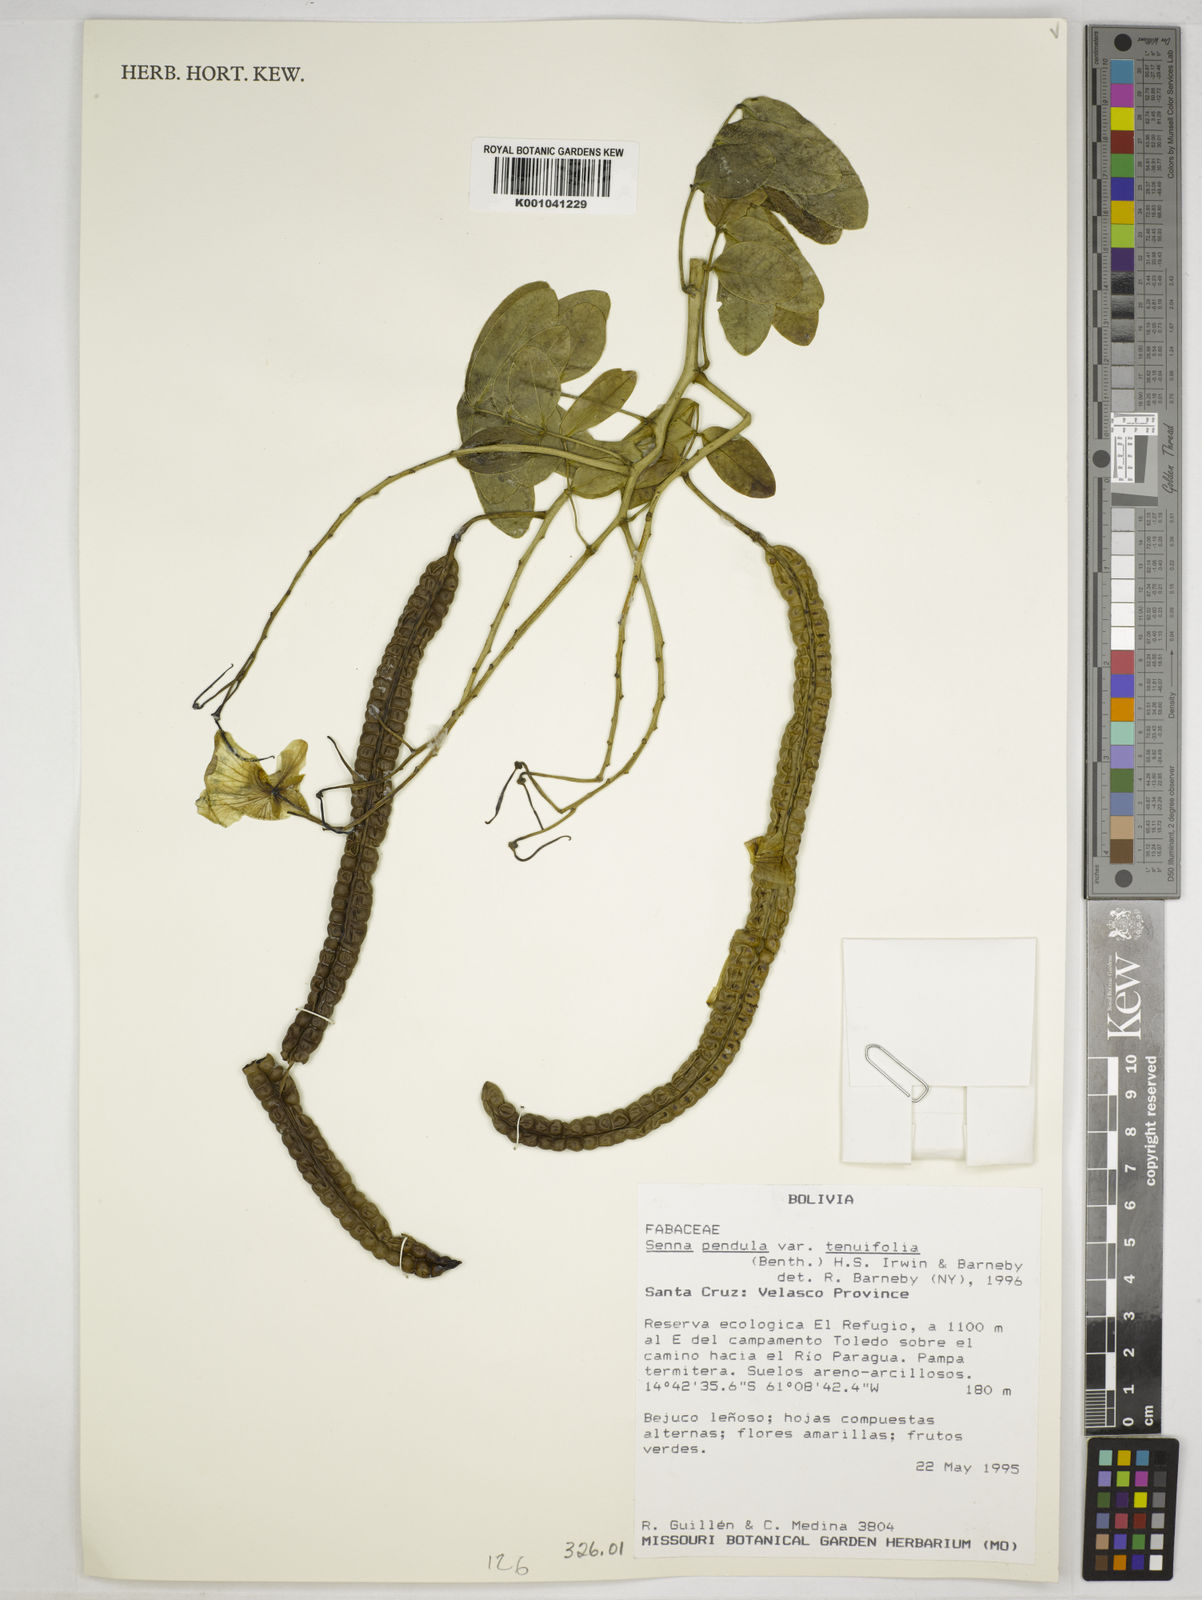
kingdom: Plantae
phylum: Tracheophyta
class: Magnoliopsida
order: Fabales
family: Fabaceae
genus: Senna
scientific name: Senna tenuifolia
